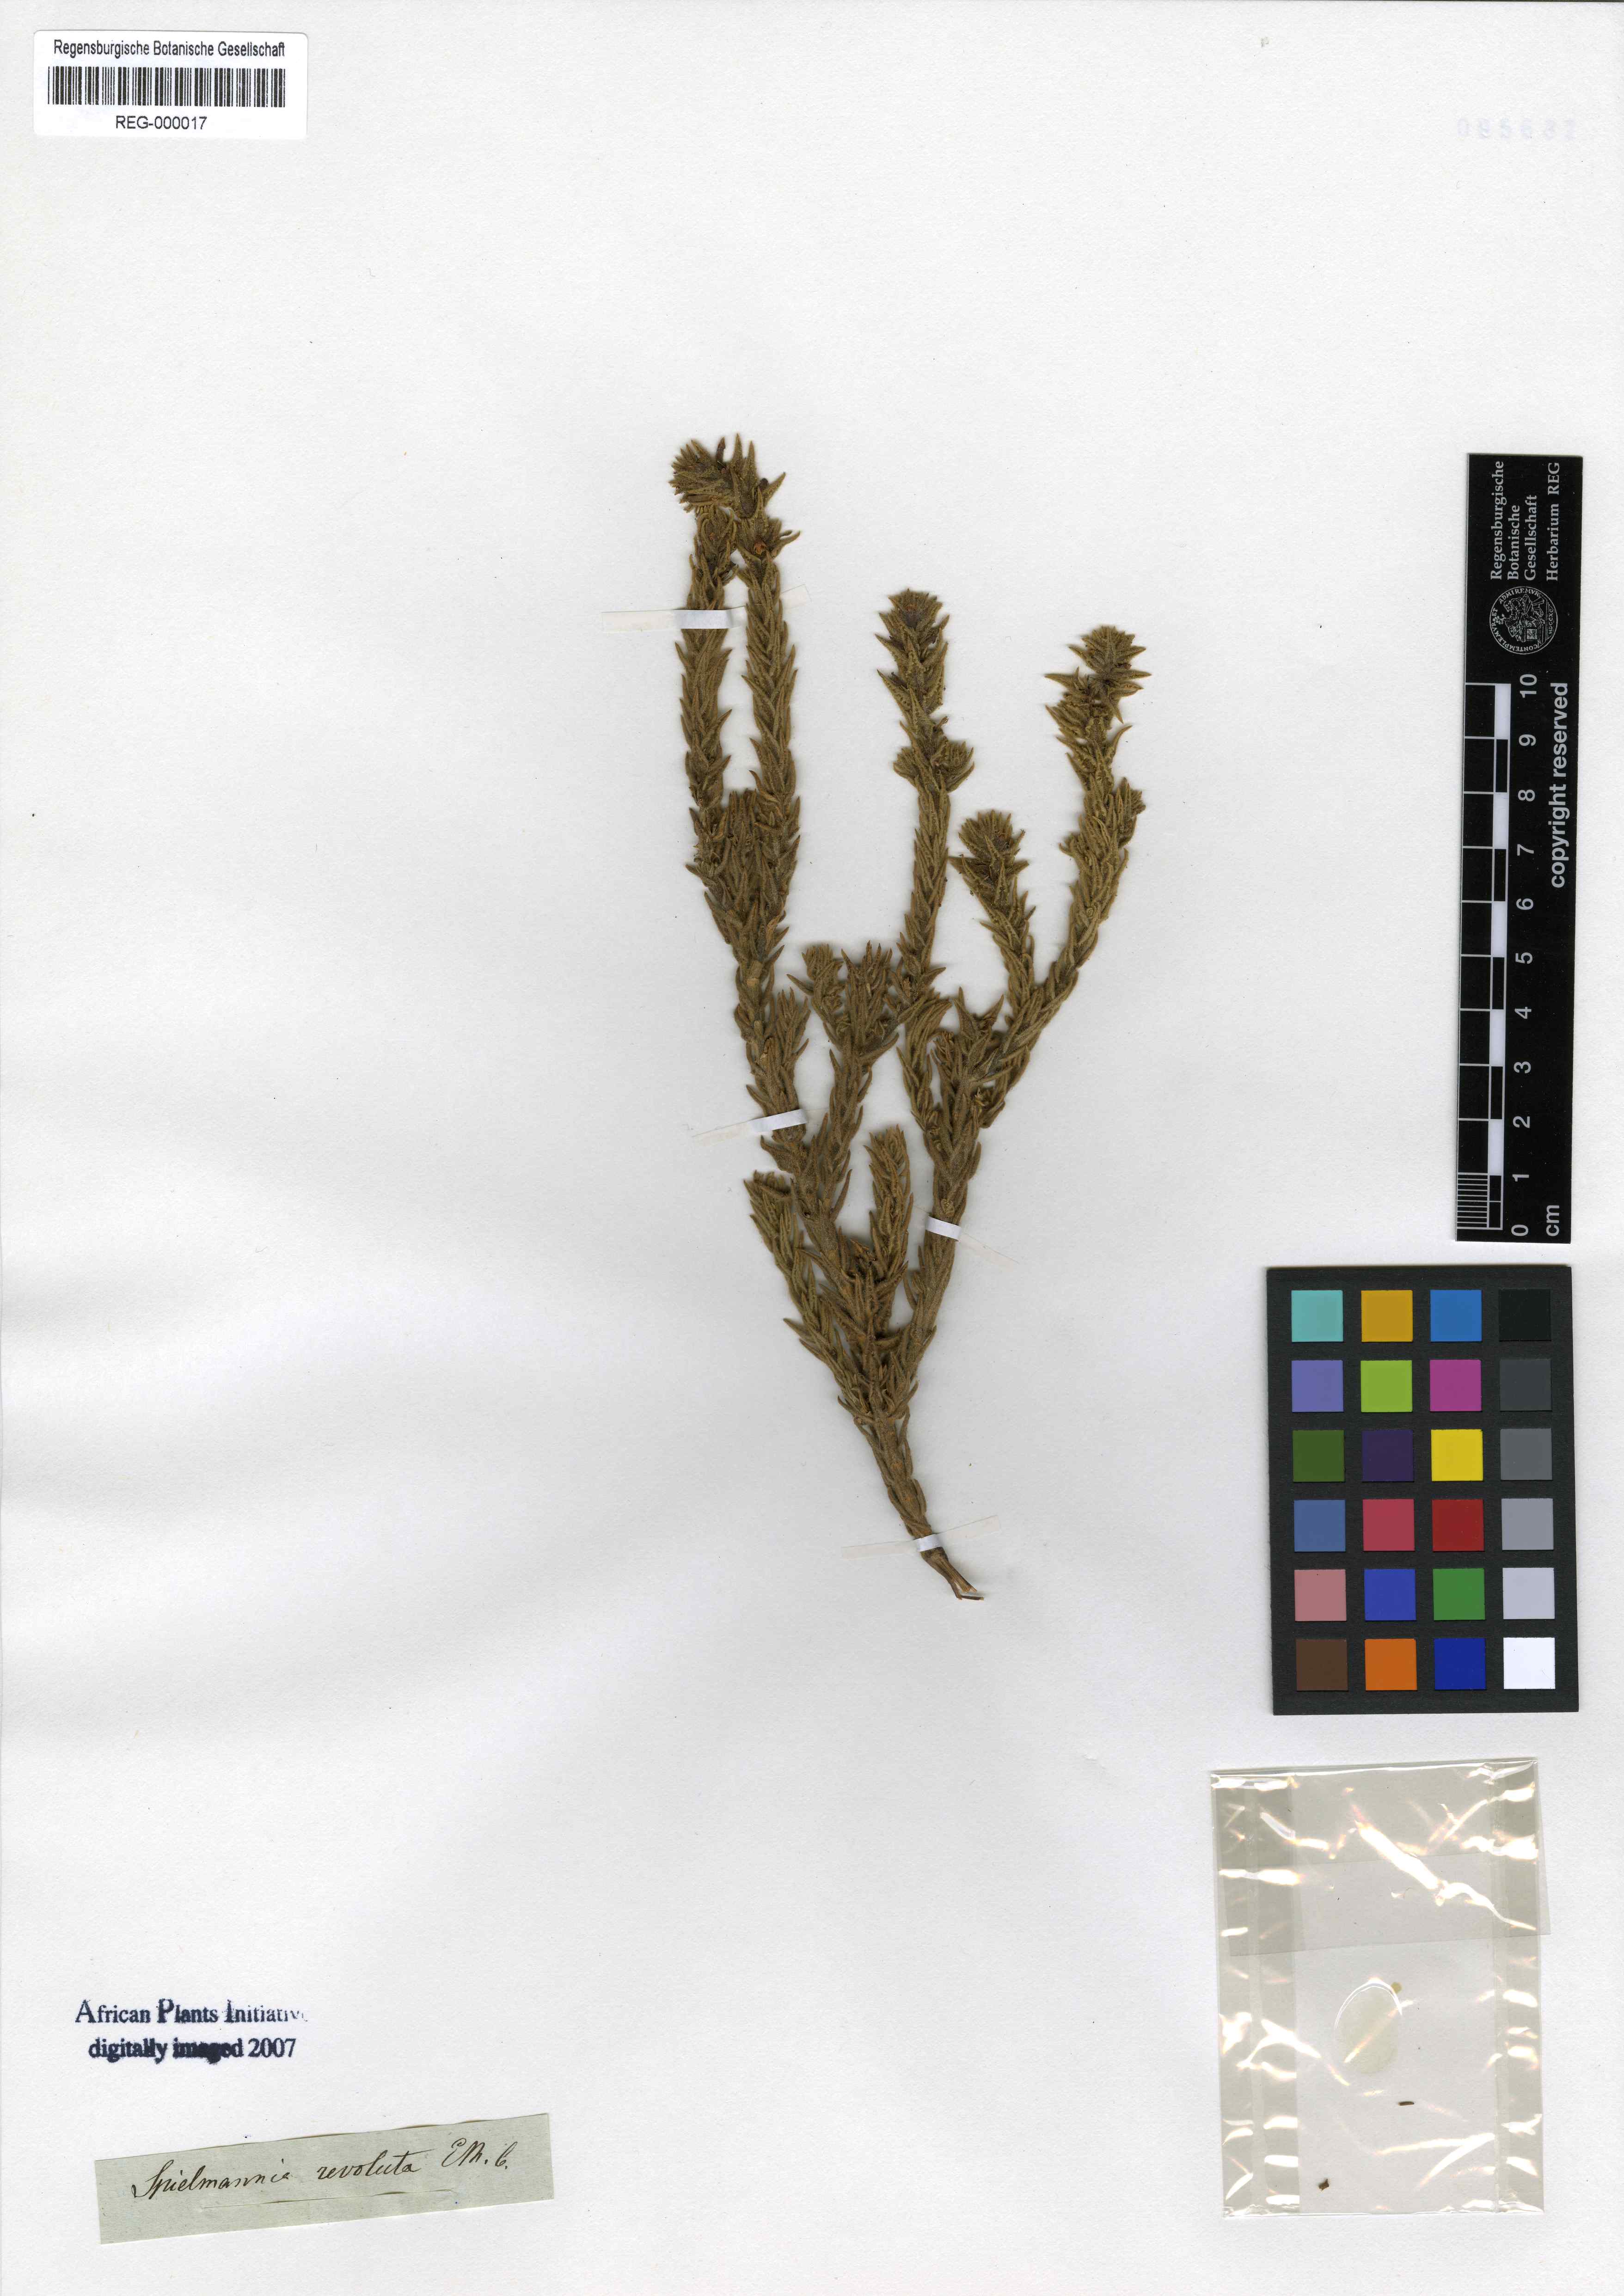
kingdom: Plantae
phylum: Tracheophyta
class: Magnoliopsida
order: Lamiales
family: Scrophulariaceae
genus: Oftia
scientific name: Oftia revoluta
